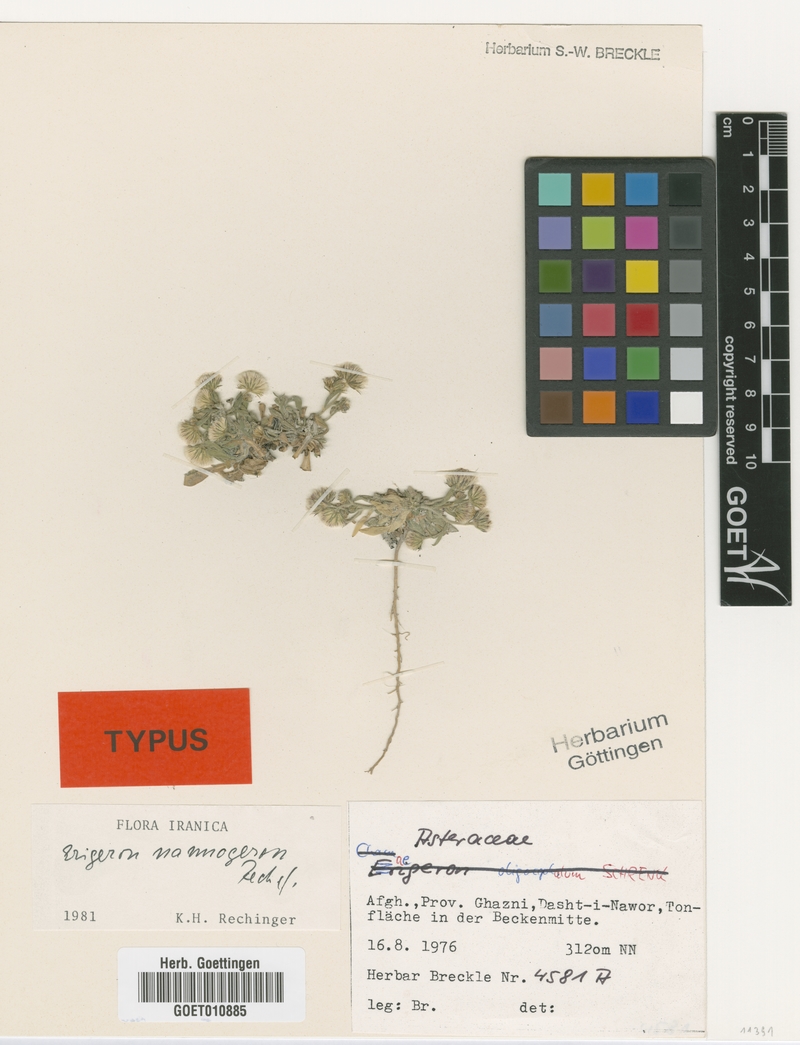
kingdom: Plantae
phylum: Tracheophyta
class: Magnoliopsida
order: Asterales
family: Asteraceae
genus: Erigeron
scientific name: Erigeron nannogeron
